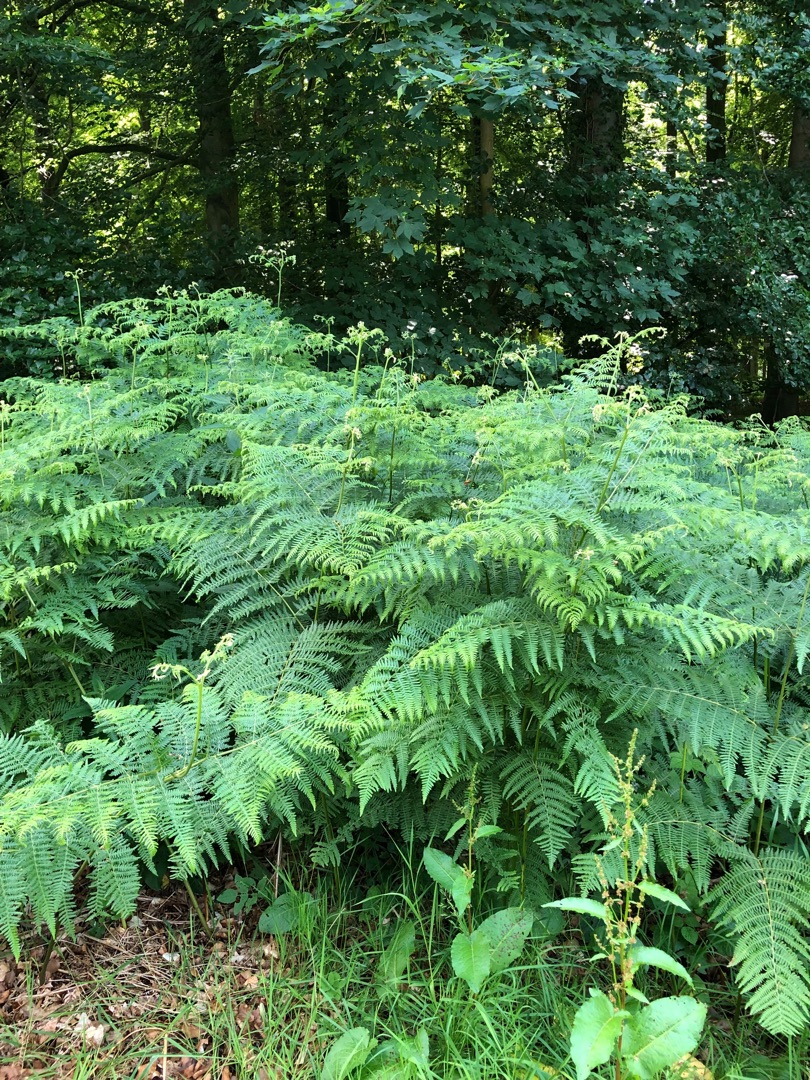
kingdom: Plantae
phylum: Tracheophyta
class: Polypodiopsida
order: Polypodiales
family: Dennstaedtiaceae
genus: Pteridium
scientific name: Pteridium aquilinum
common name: Ørnebregne
